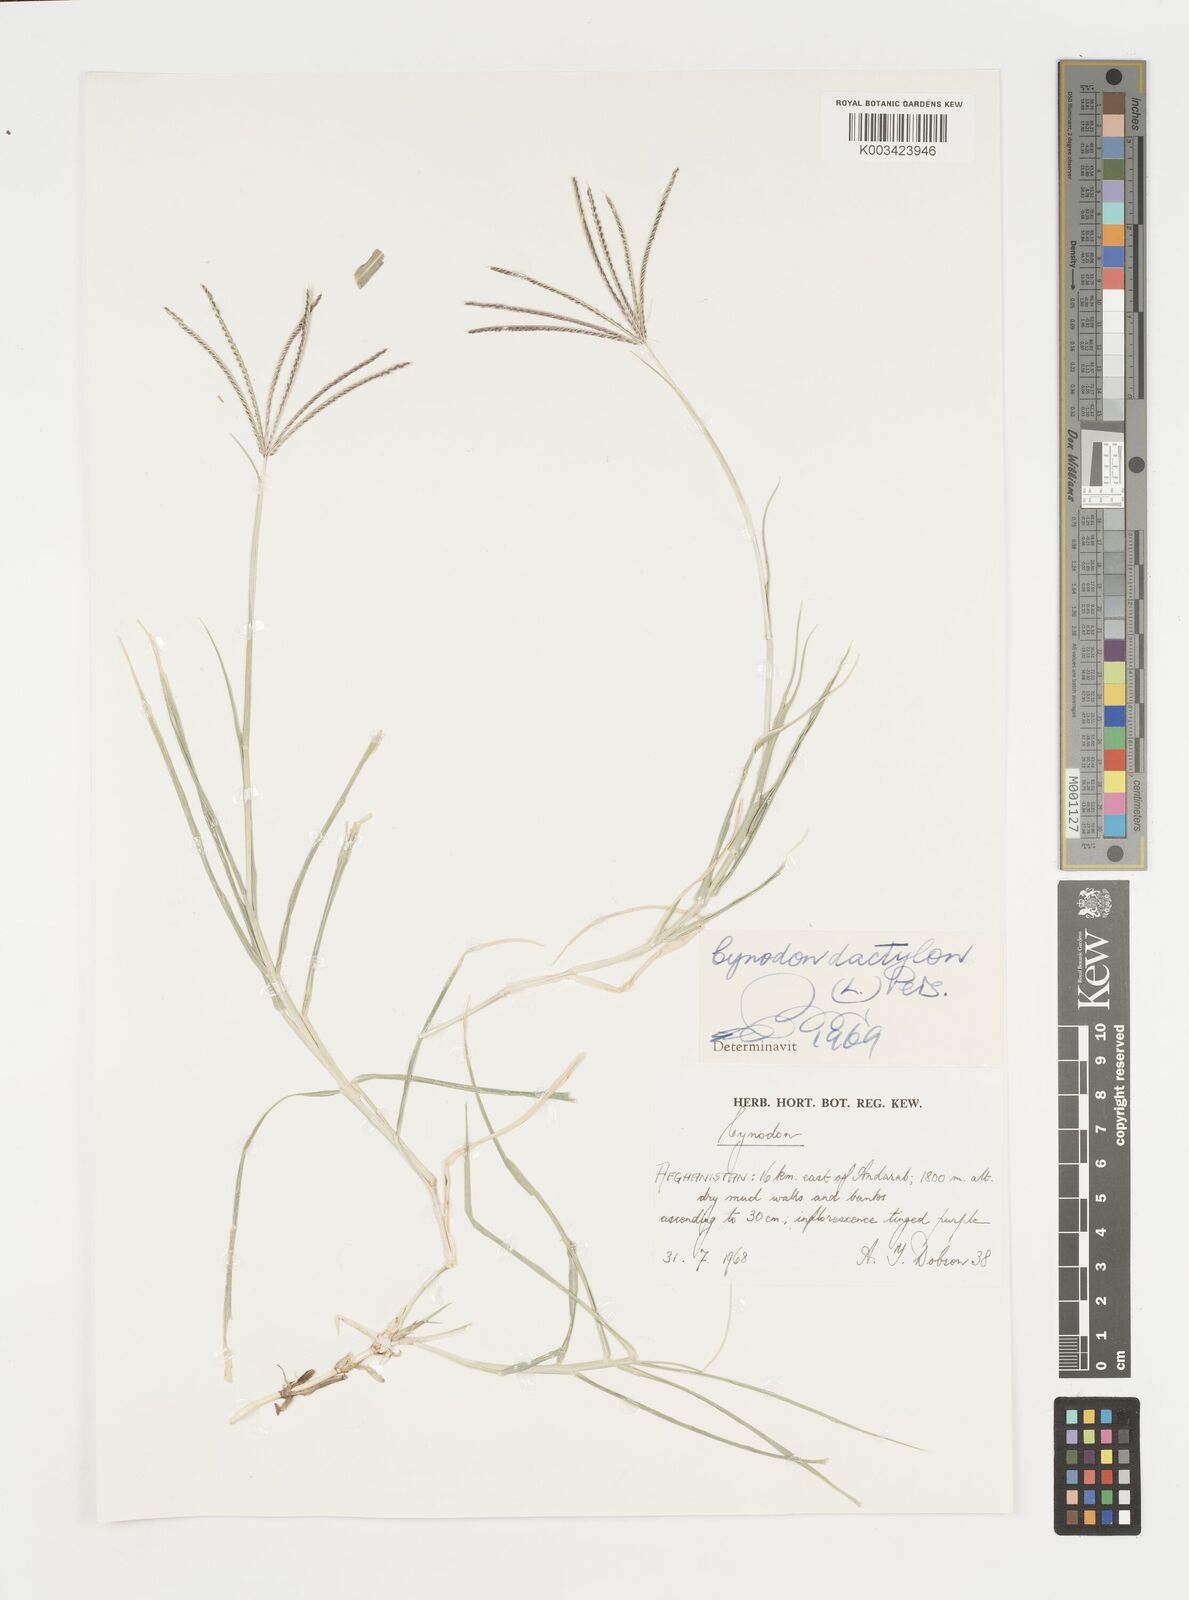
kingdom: Plantae
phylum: Tracheophyta
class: Liliopsida
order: Poales
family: Poaceae
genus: Cynodon
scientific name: Cynodon dactylon
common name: Bermuda grass
